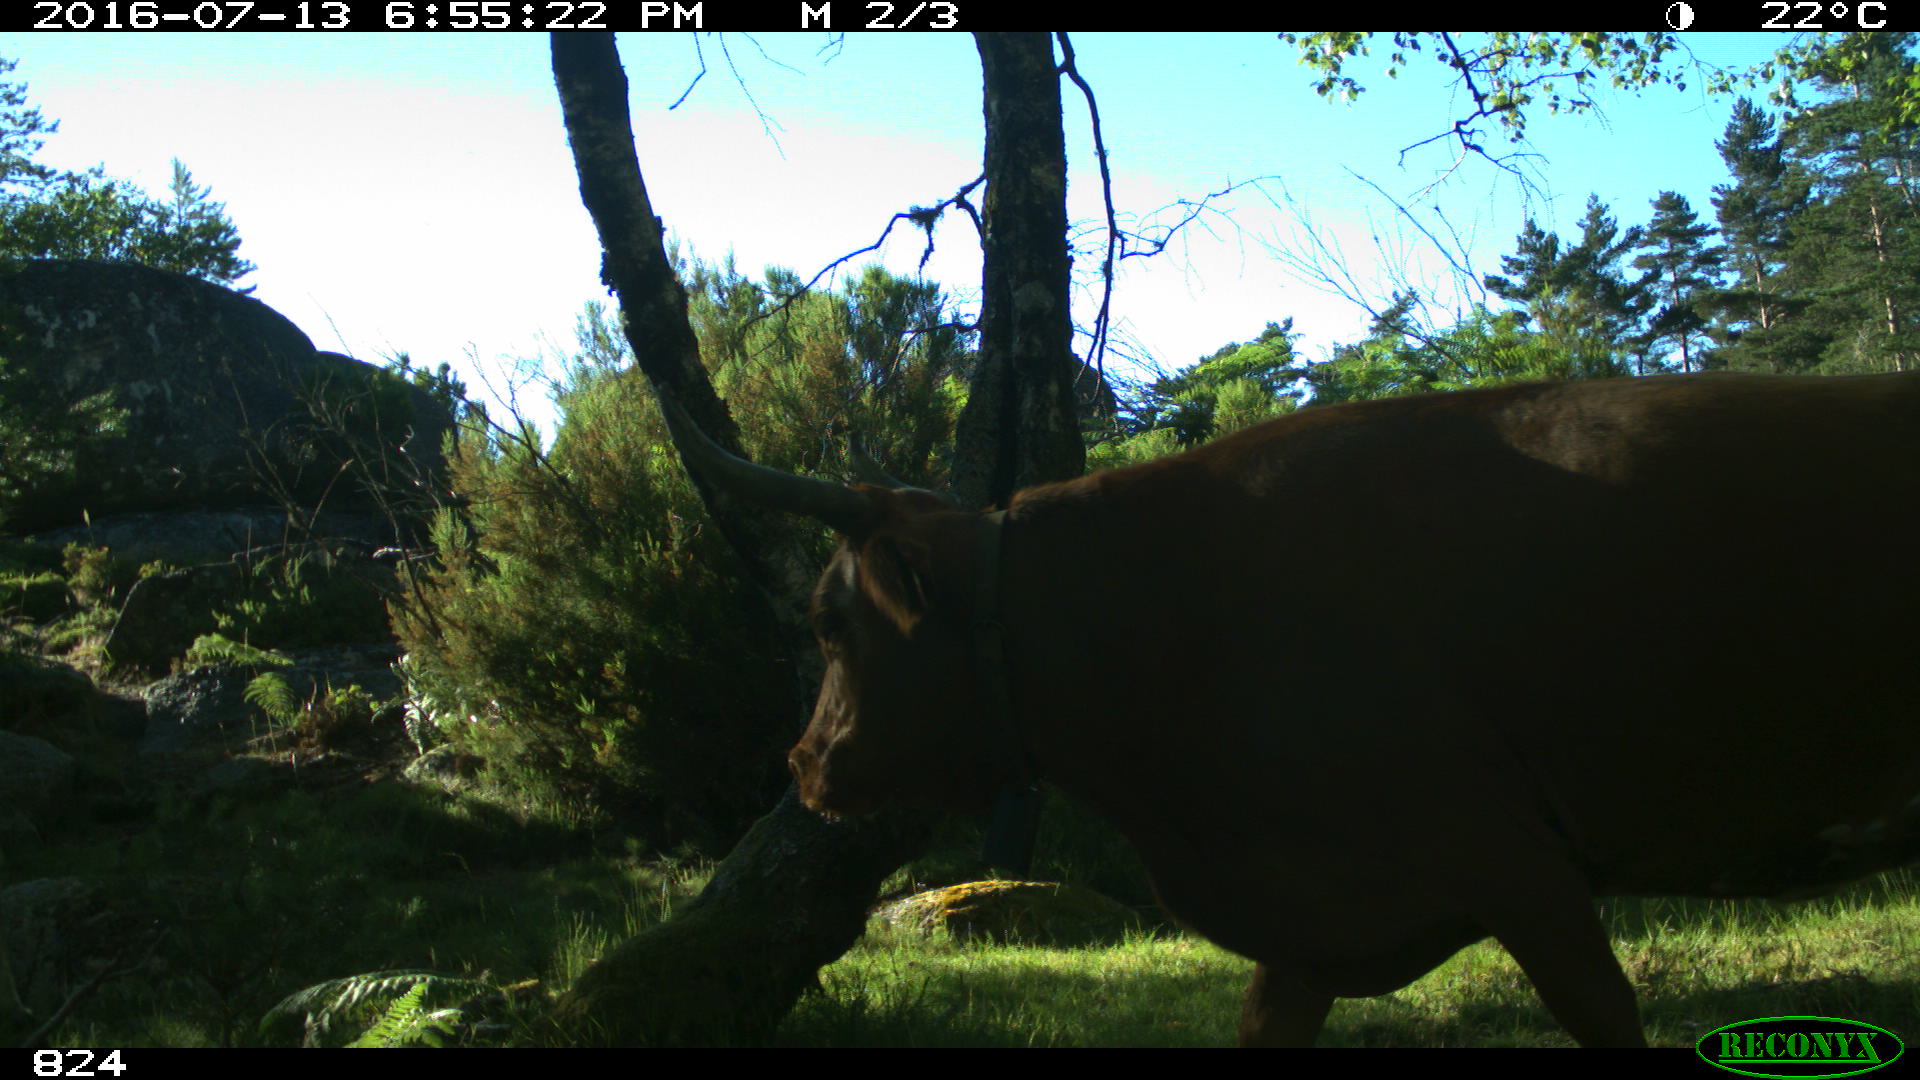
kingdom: Animalia
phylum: Chordata
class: Mammalia
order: Artiodactyla
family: Bovidae
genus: Bos
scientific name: Bos taurus
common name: Domesticated cattle
